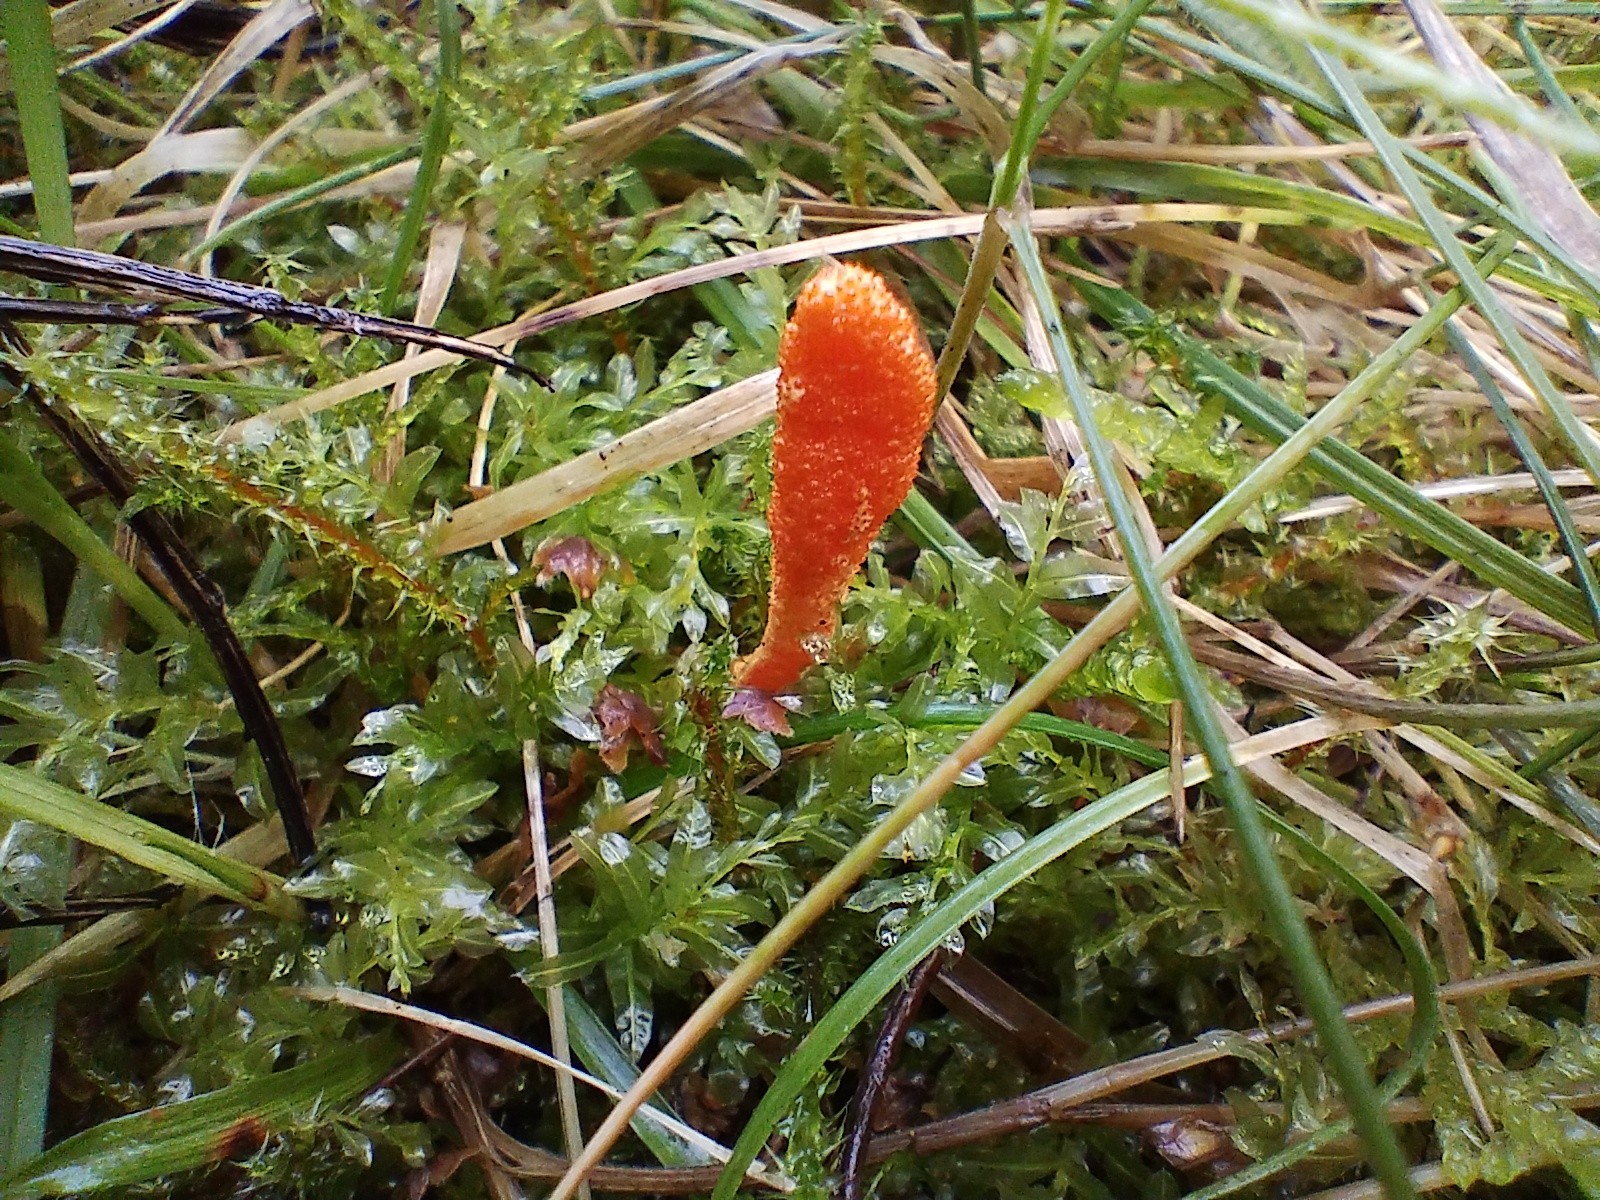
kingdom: Fungi
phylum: Ascomycota
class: Sordariomycetes
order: Hypocreales
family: Cordycipitaceae
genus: Cordyceps
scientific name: Cordyceps militaris
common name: puppe-snyltekølle
